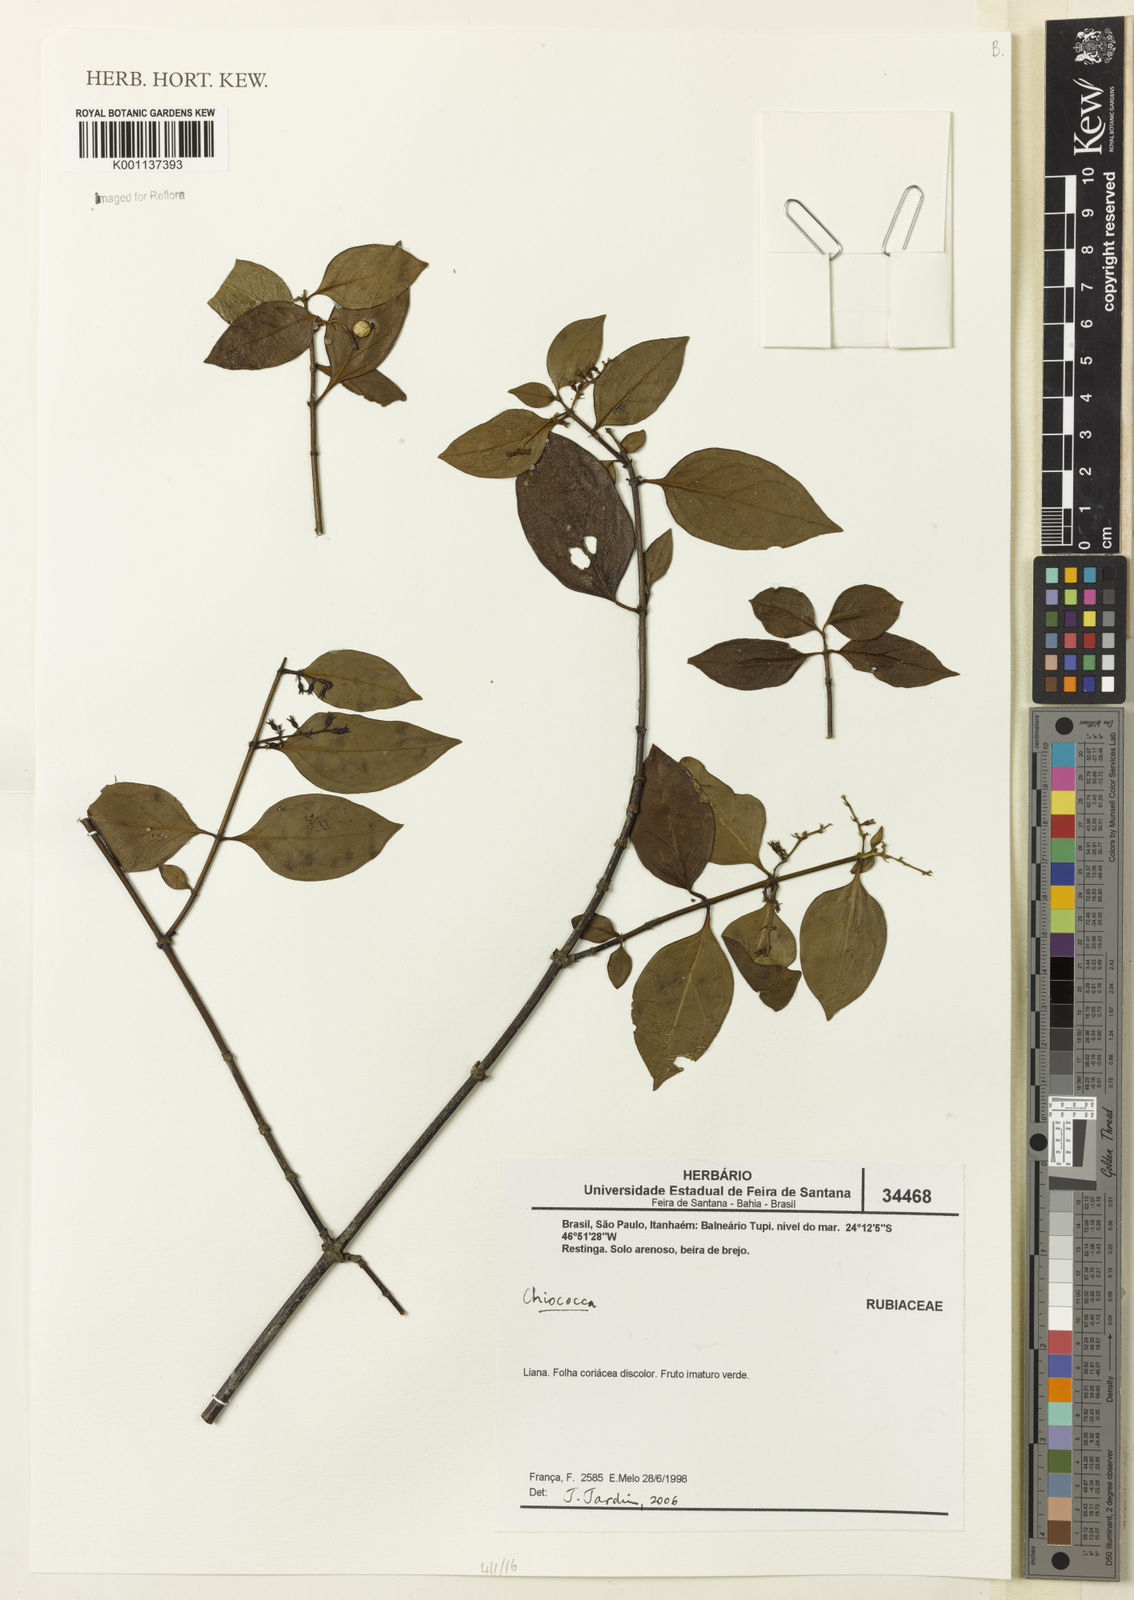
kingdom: Plantae
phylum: Tracheophyta
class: Magnoliopsida
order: Gentianales
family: Rubiaceae
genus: Chiococca
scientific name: Chiococca
